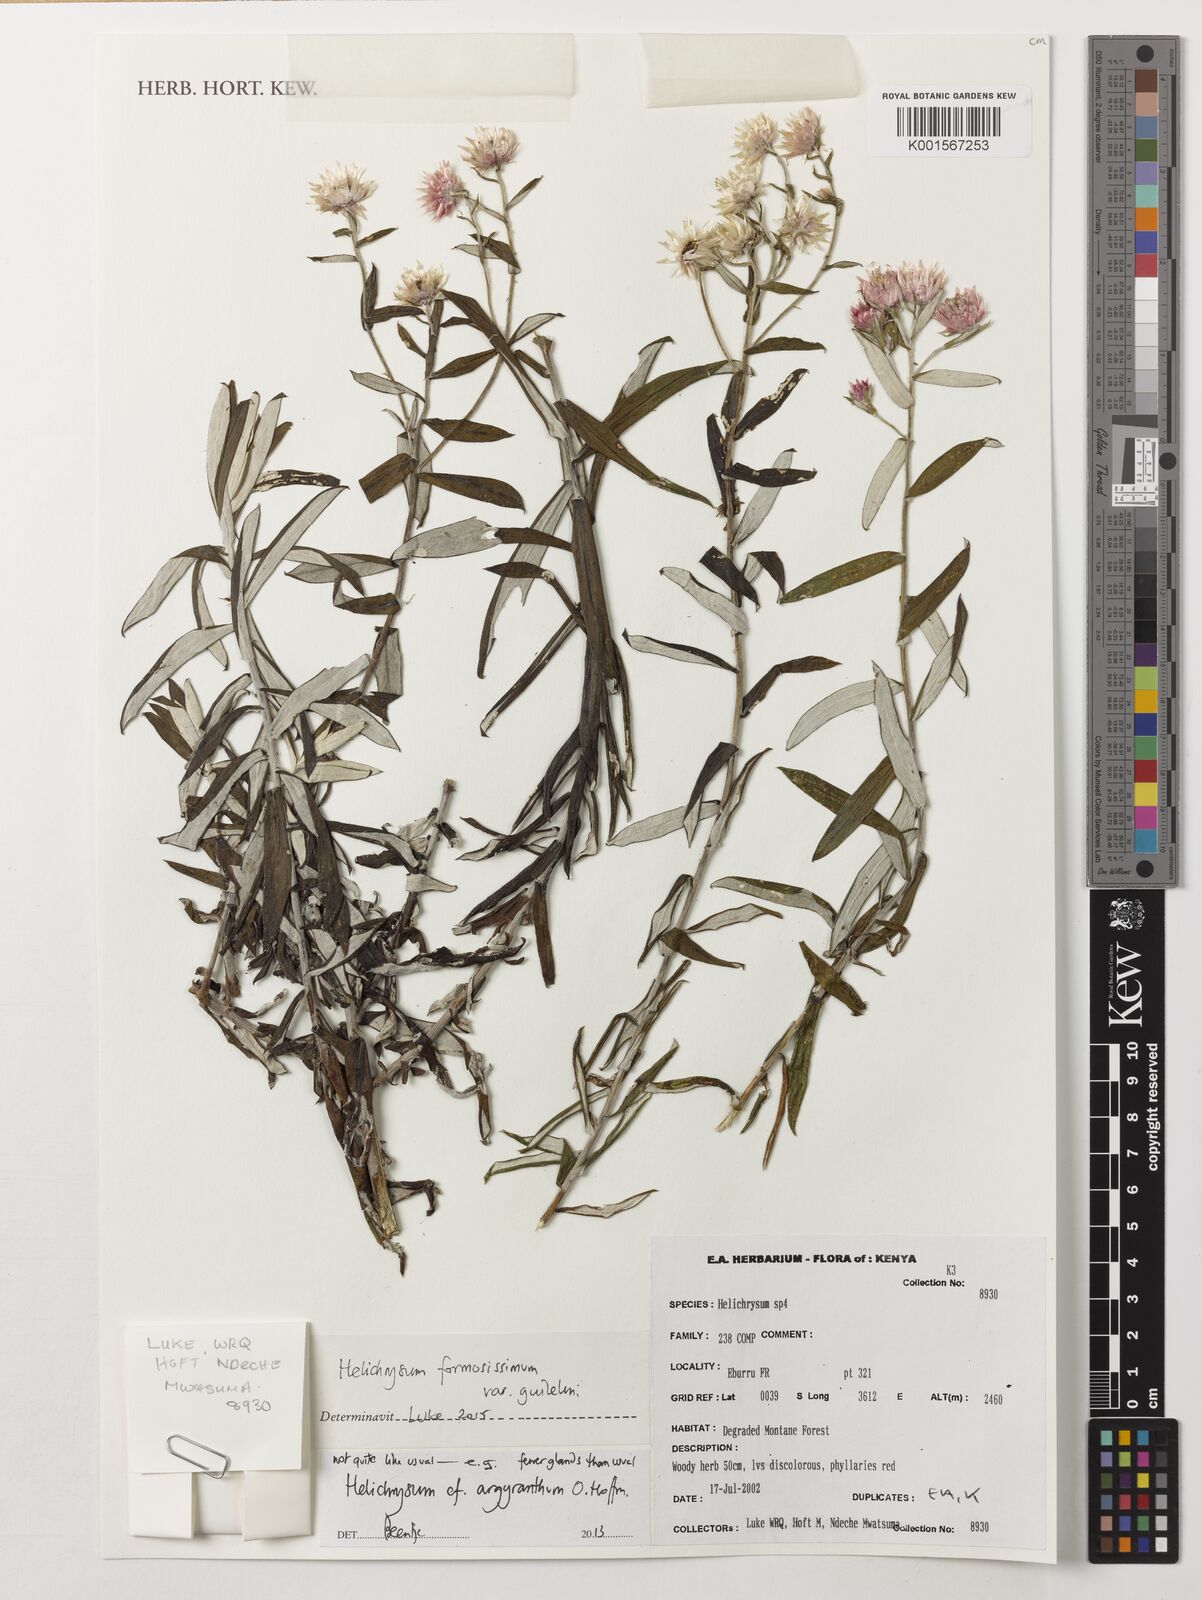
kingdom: Plantae
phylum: Tracheophyta
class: Magnoliopsida
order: Asterales
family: Asteraceae
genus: Helichrysum
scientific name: Helichrysum formosissimum
